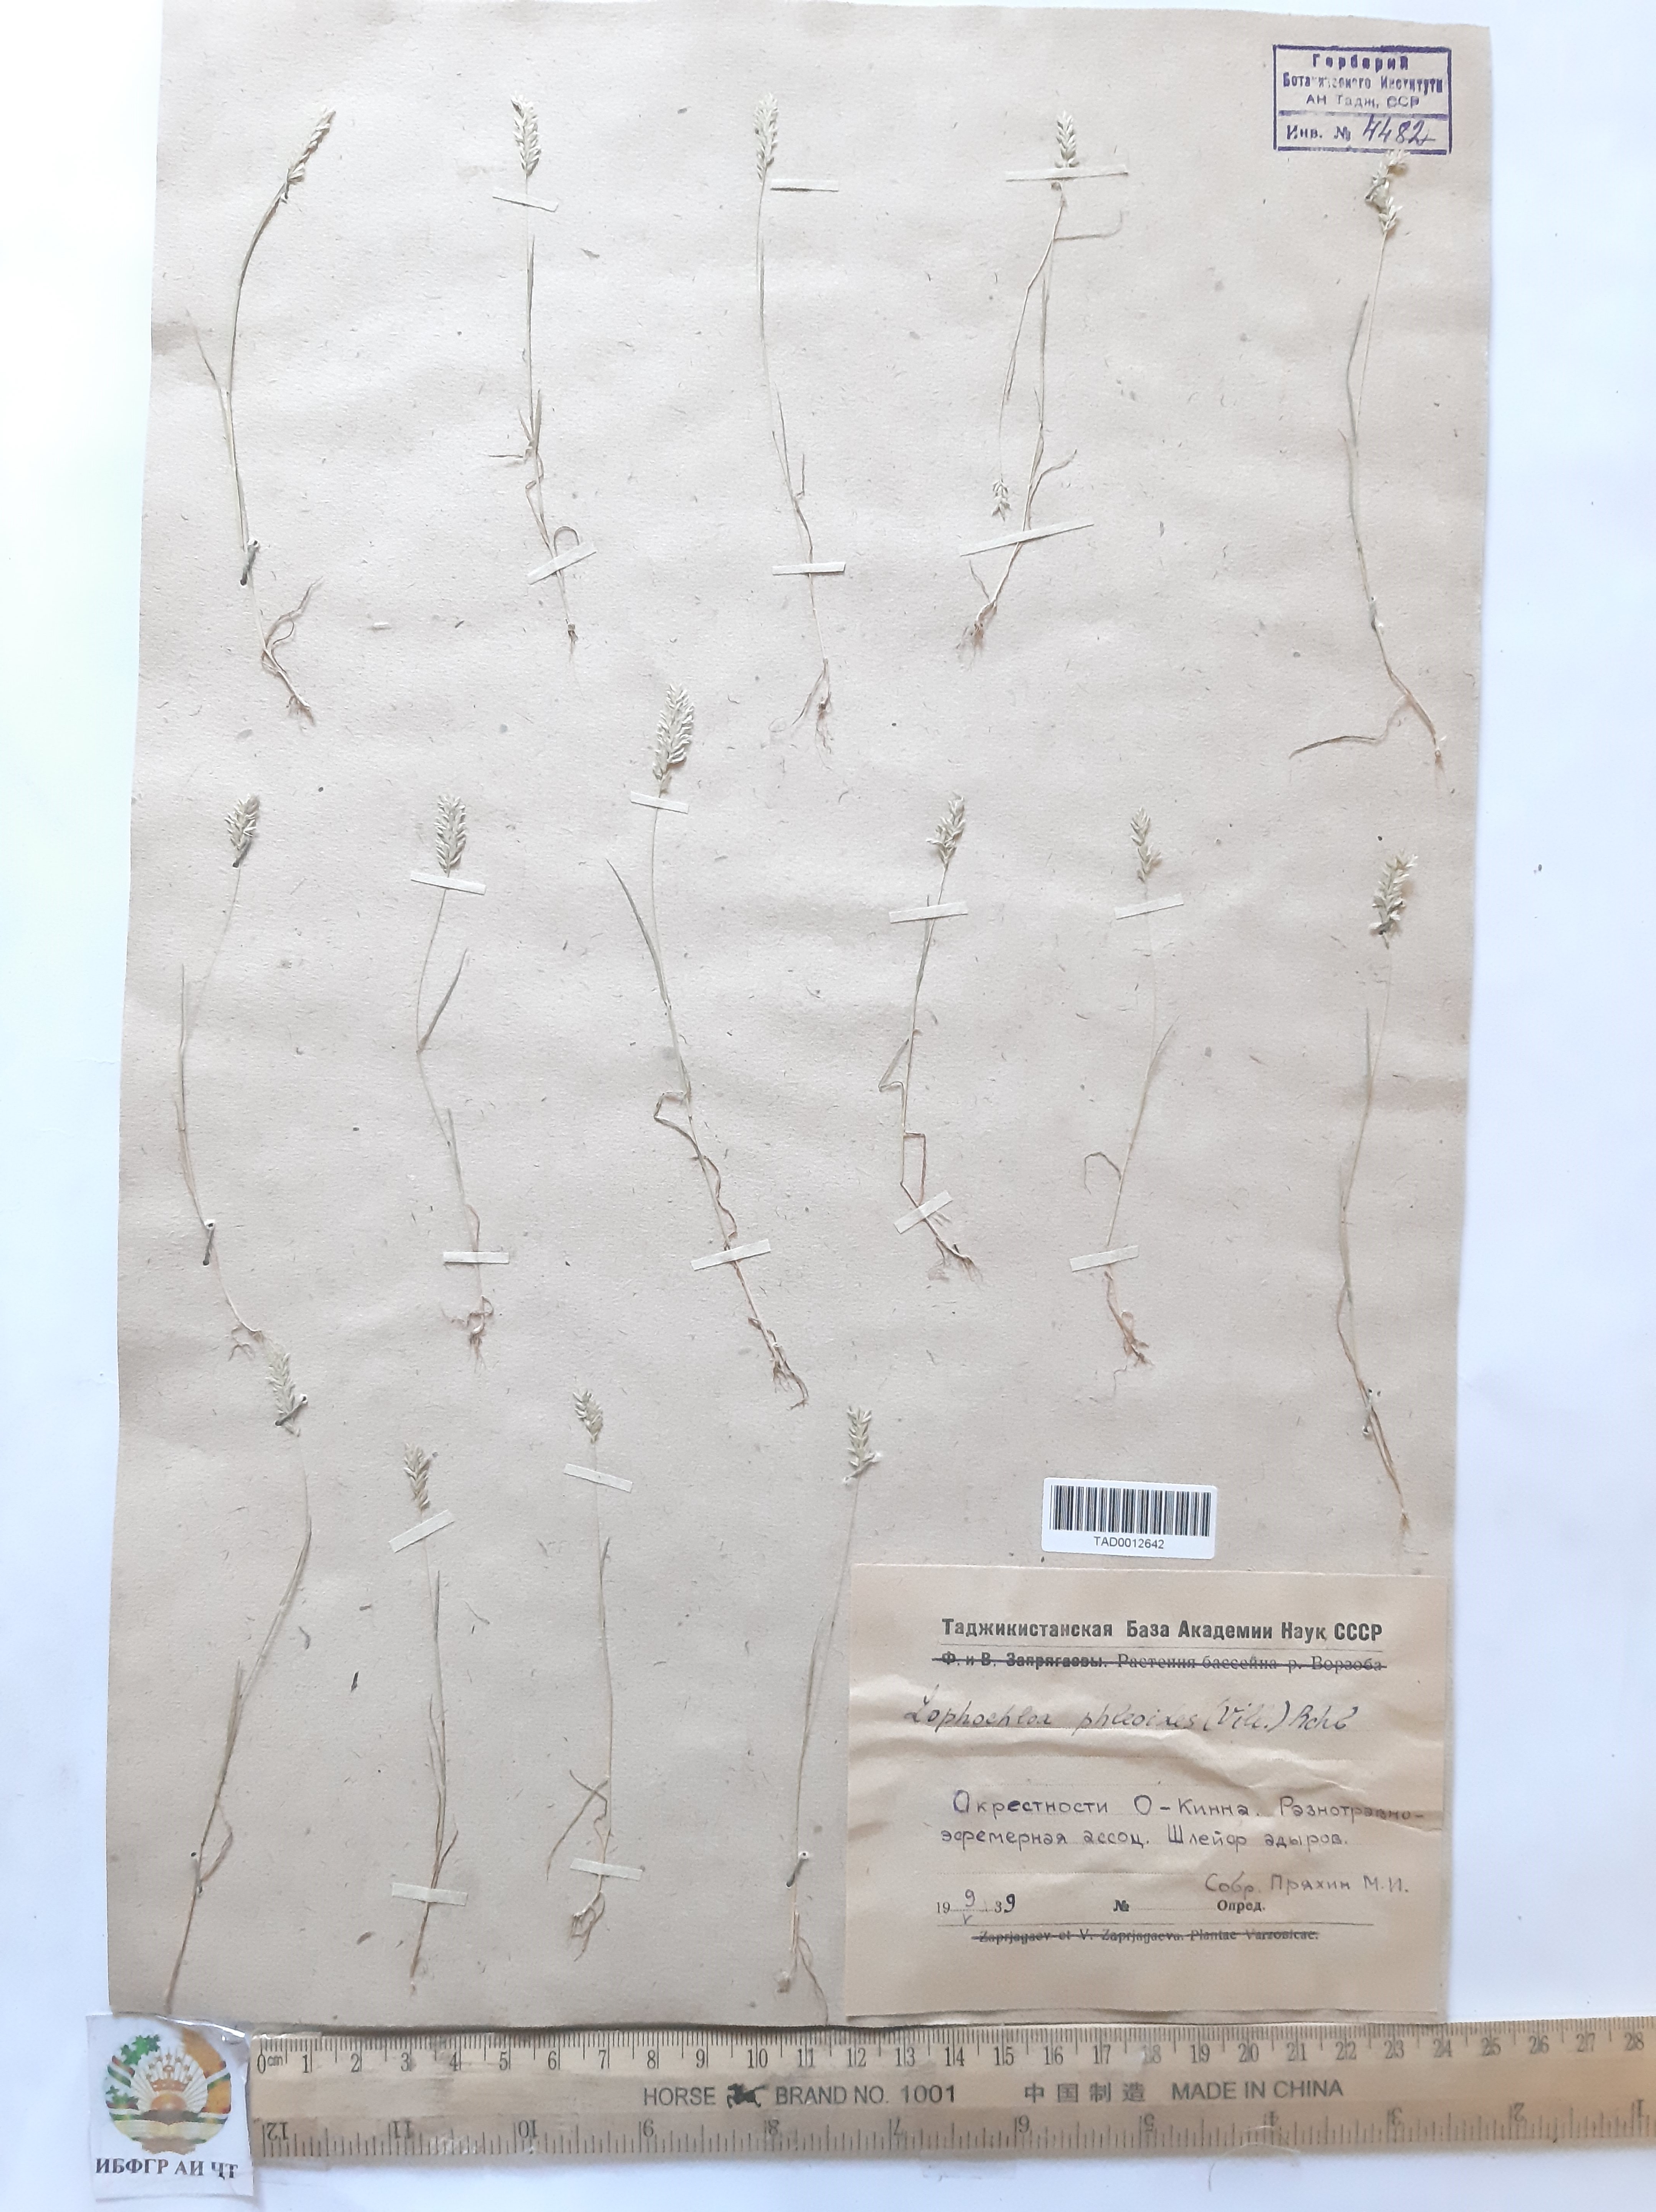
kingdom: Plantae
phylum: Tracheophyta
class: Liliopsida
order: Poales
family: Poaceae
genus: Rostraria
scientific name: Rostraria cristata
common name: Mediterranean hair-grass
